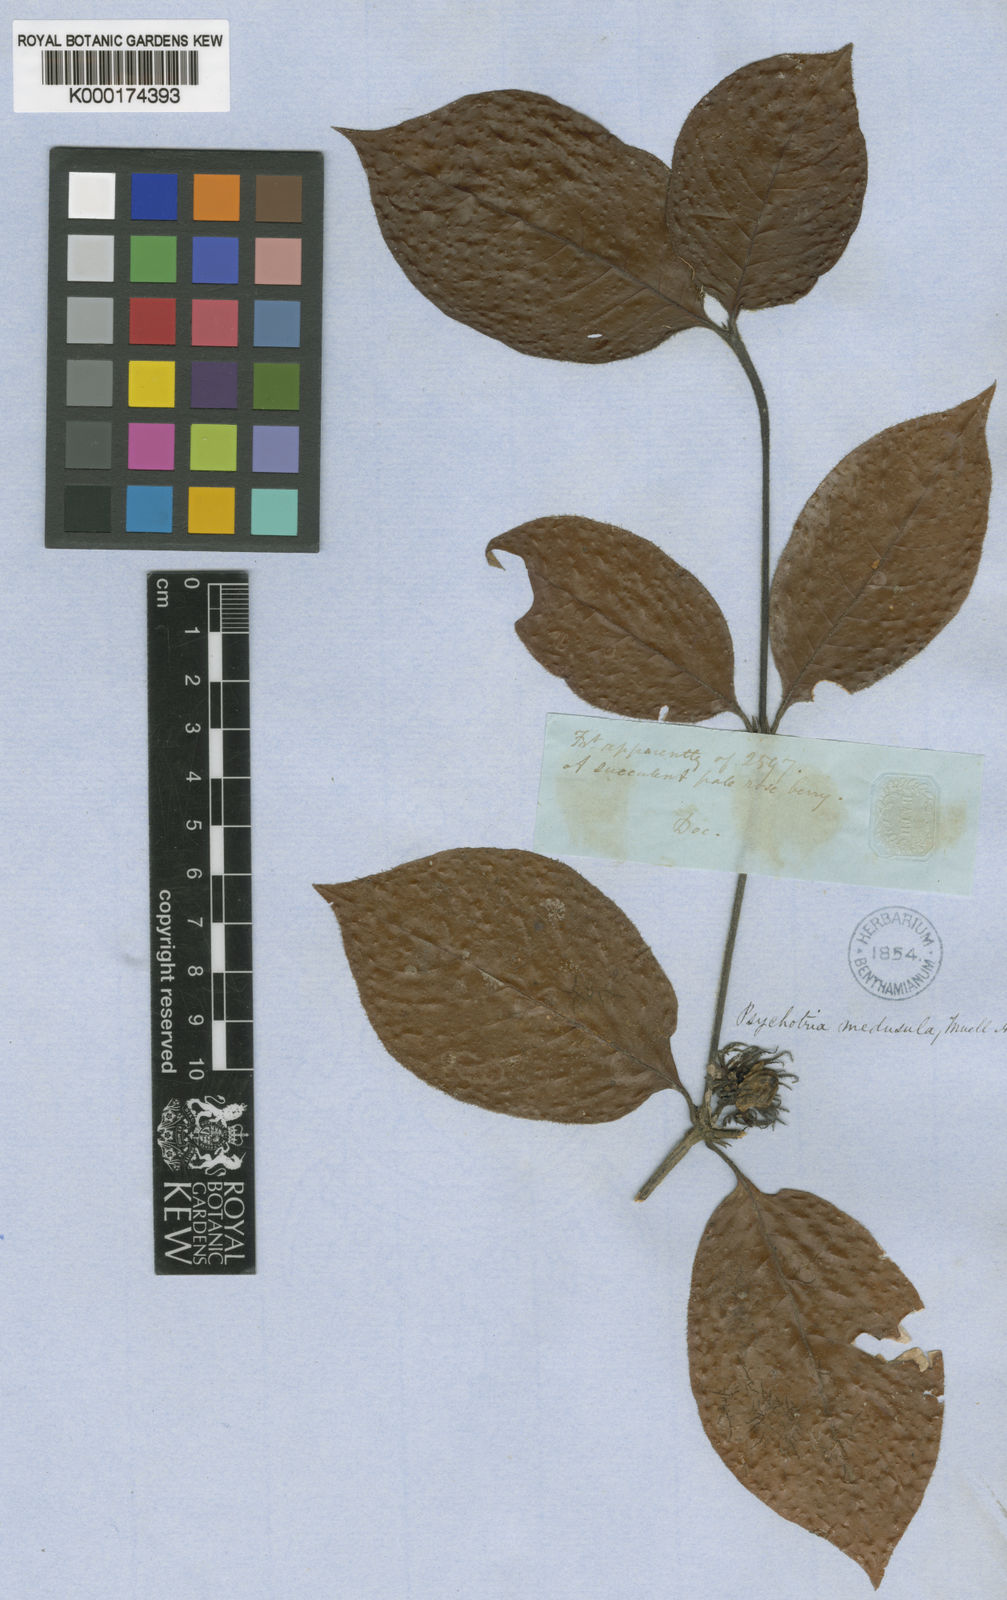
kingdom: Plantae
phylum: Tracheophyta
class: Magnoliopsida
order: Gentianales
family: Rubiaceae
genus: Psychotria
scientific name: Psychotria
